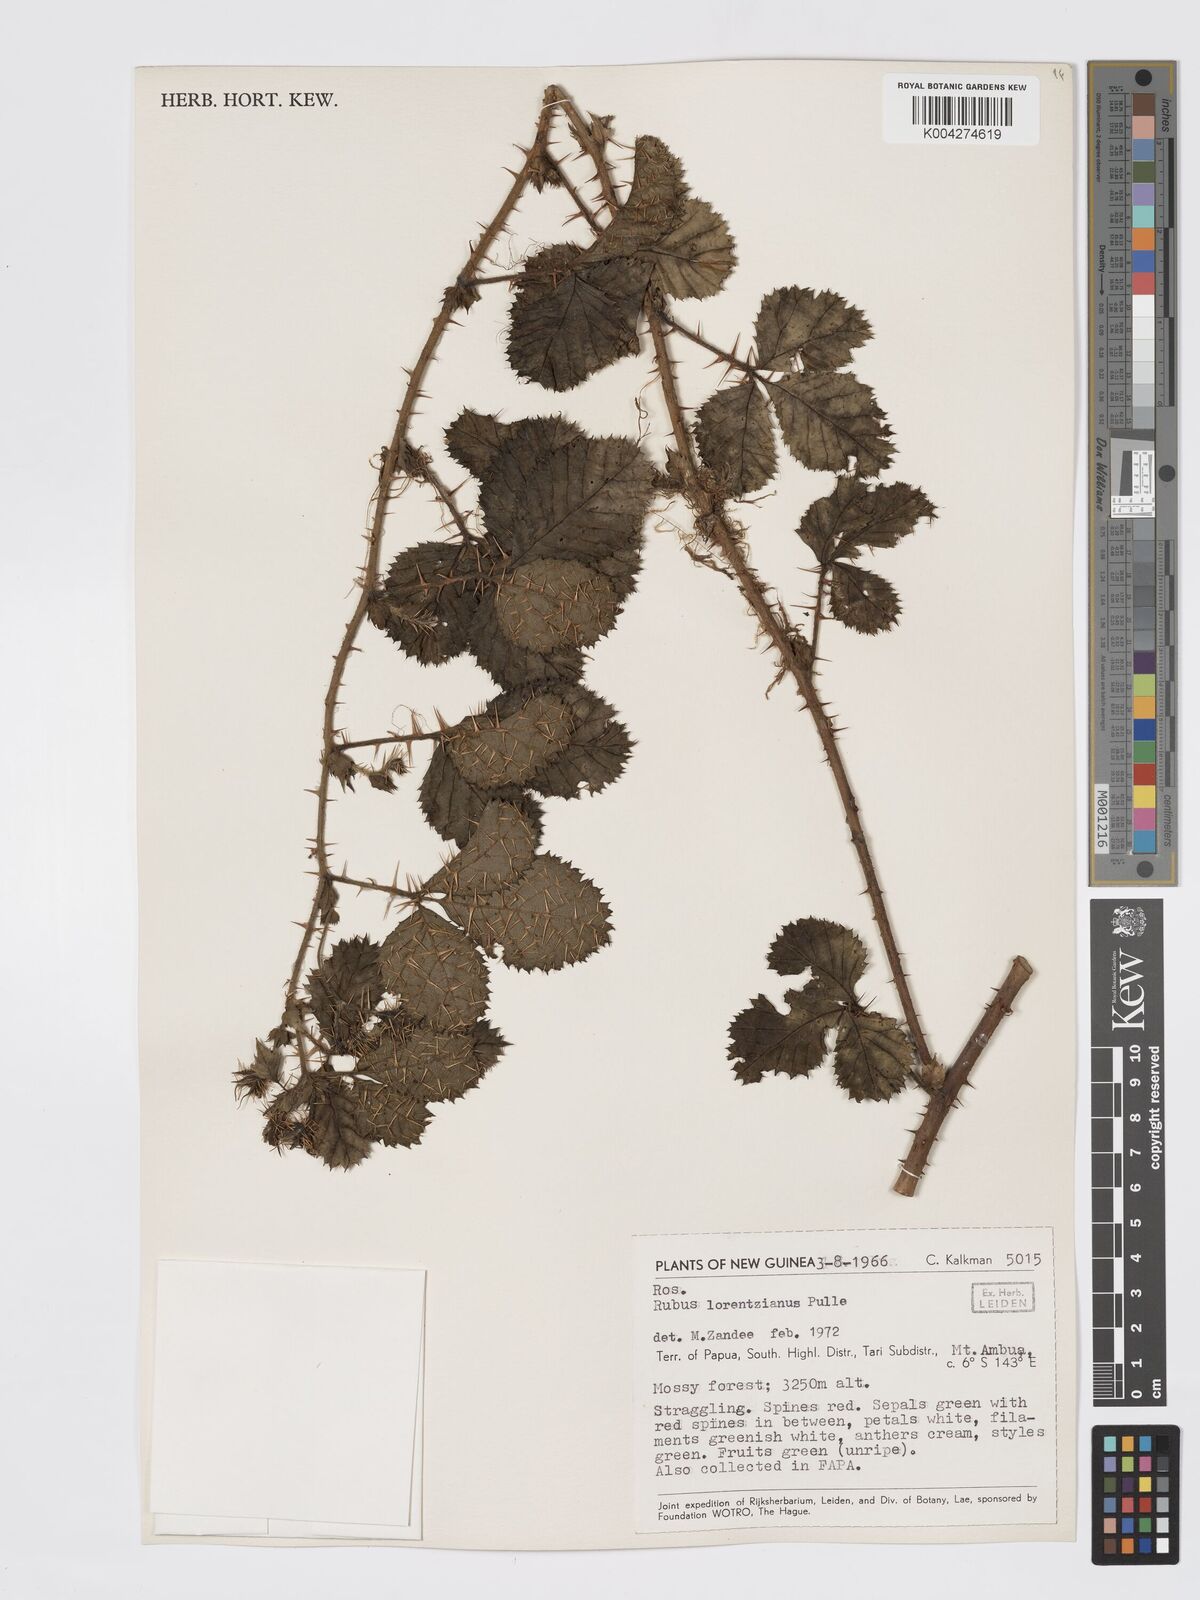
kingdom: Plantae
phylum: Tracheophyta
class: Magnoliopsida
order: Rosales
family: Rosaceae
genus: Rubus
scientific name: Rubus lorentzianus
